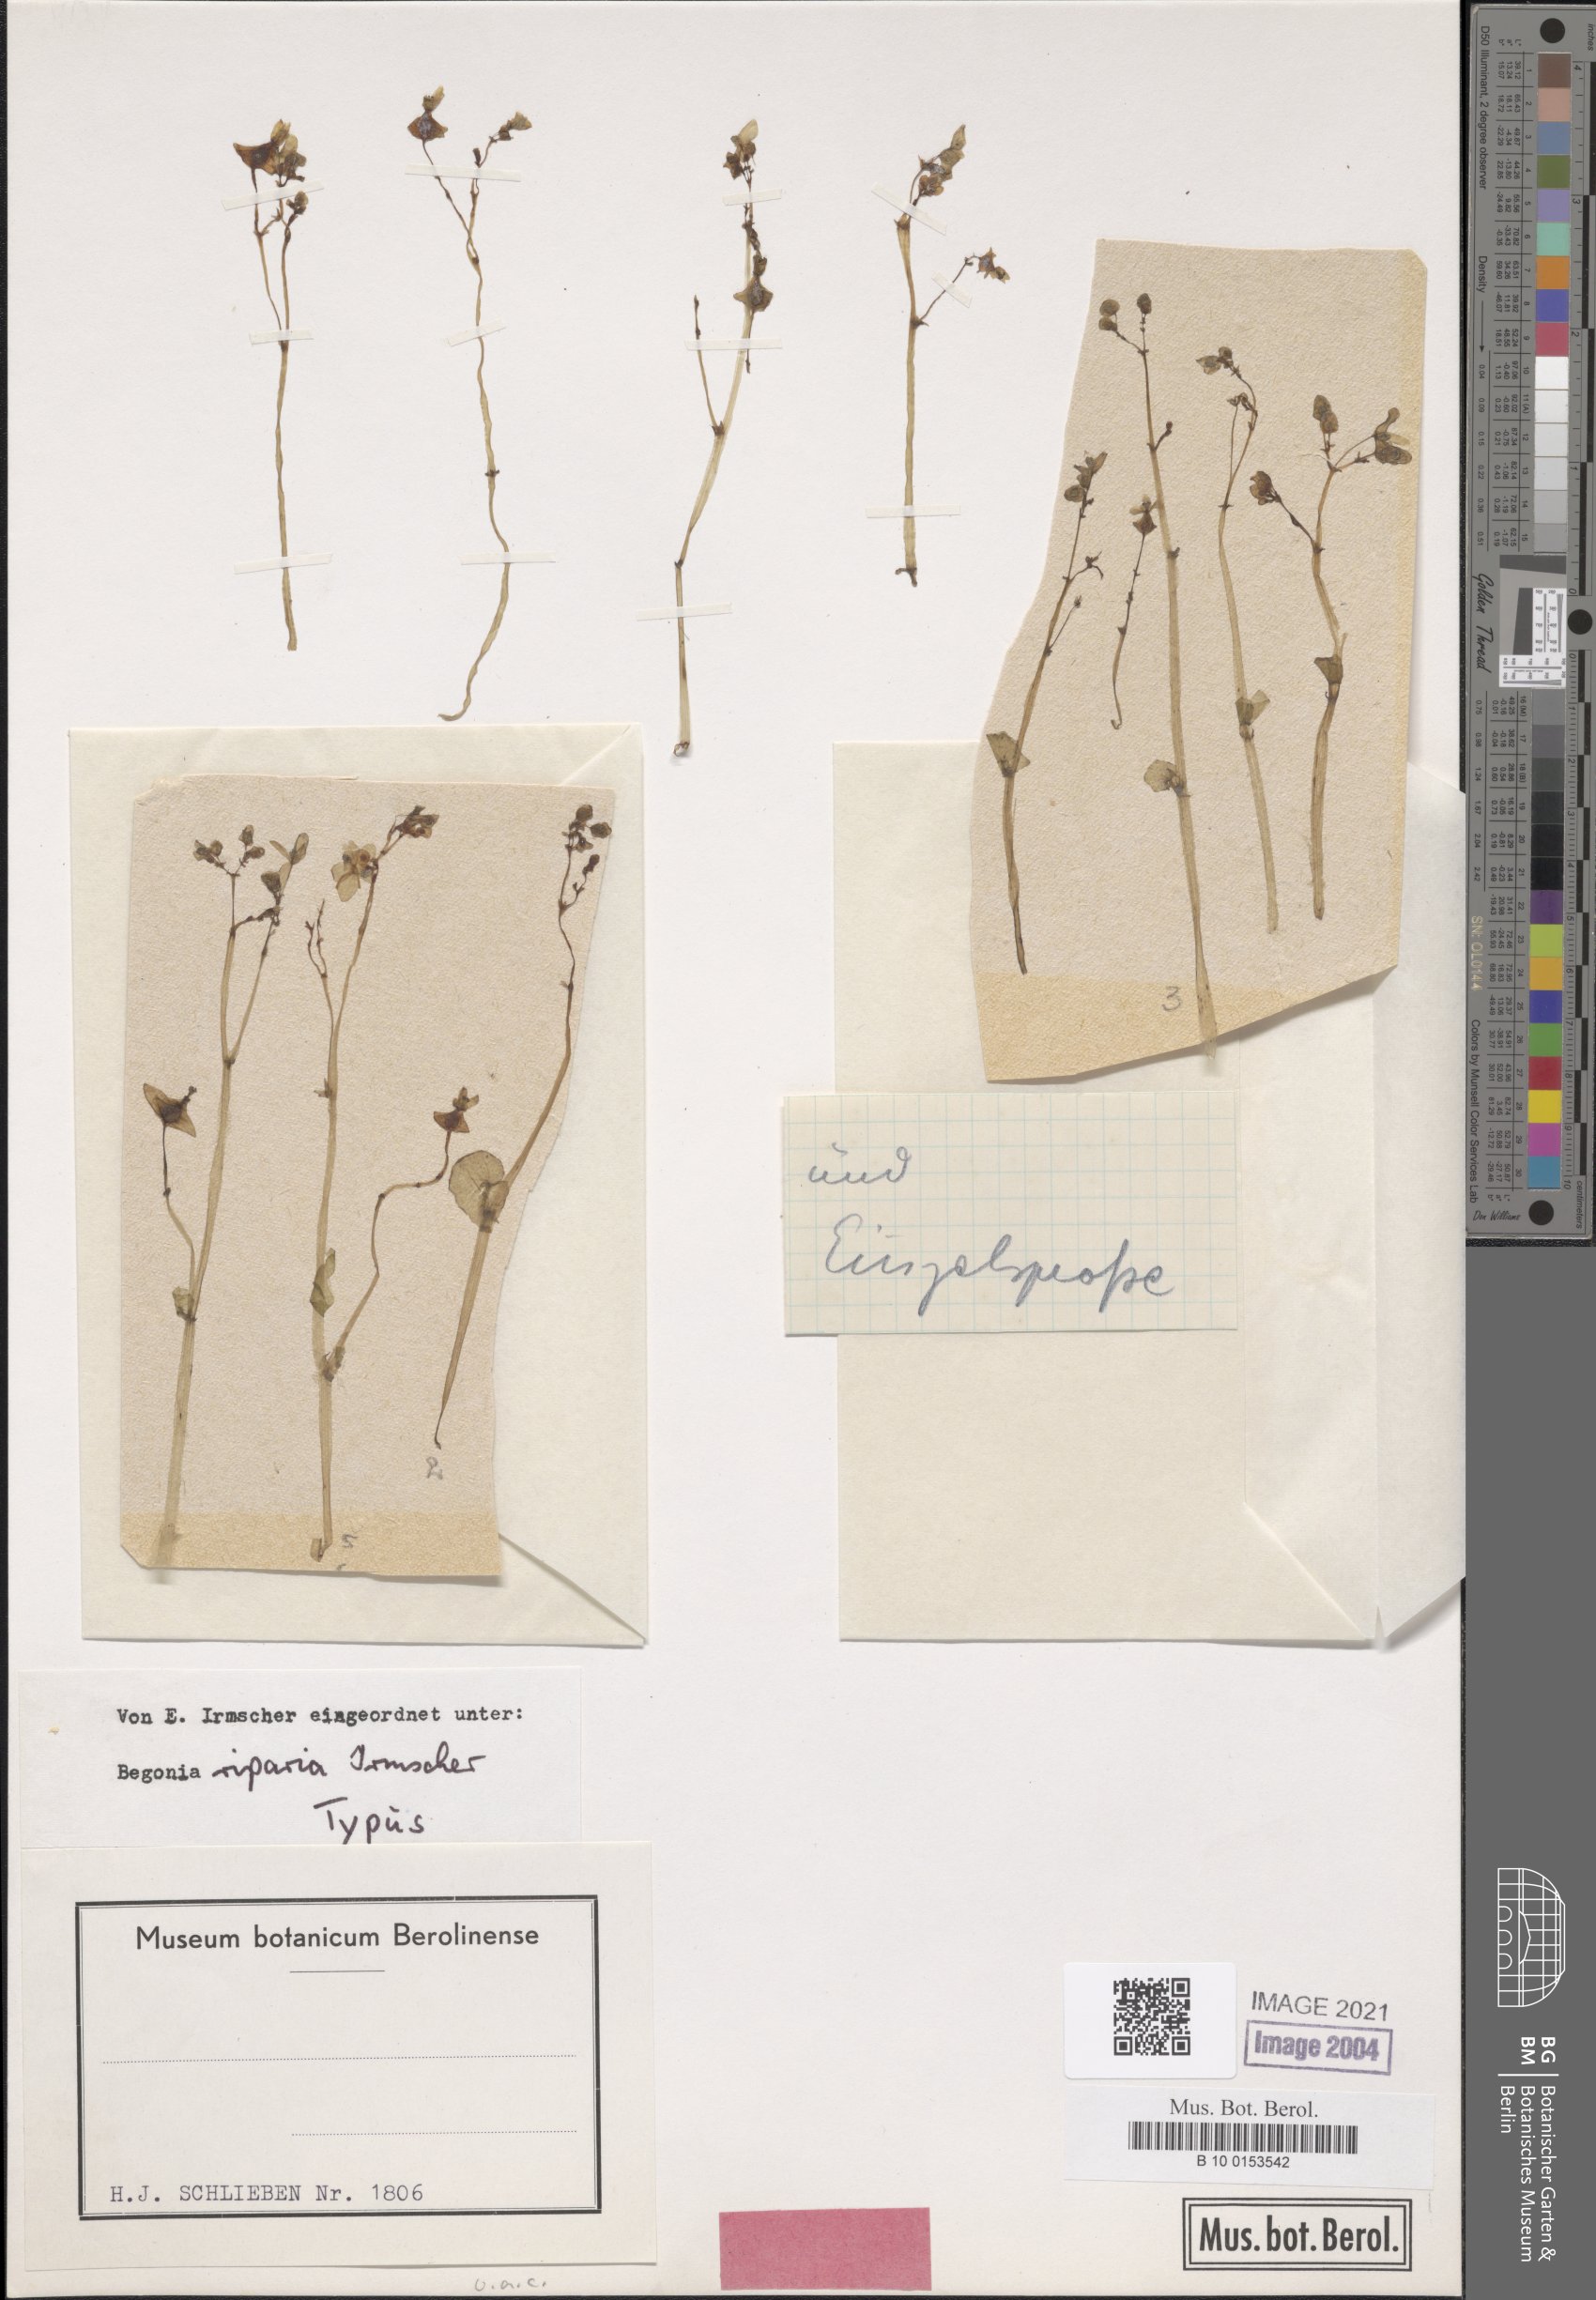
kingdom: Plantae
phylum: Tracheophyta
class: Magnoliopsida
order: Cucurbitales
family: Begoniaceae
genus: Begonia
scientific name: Begonia riparia
